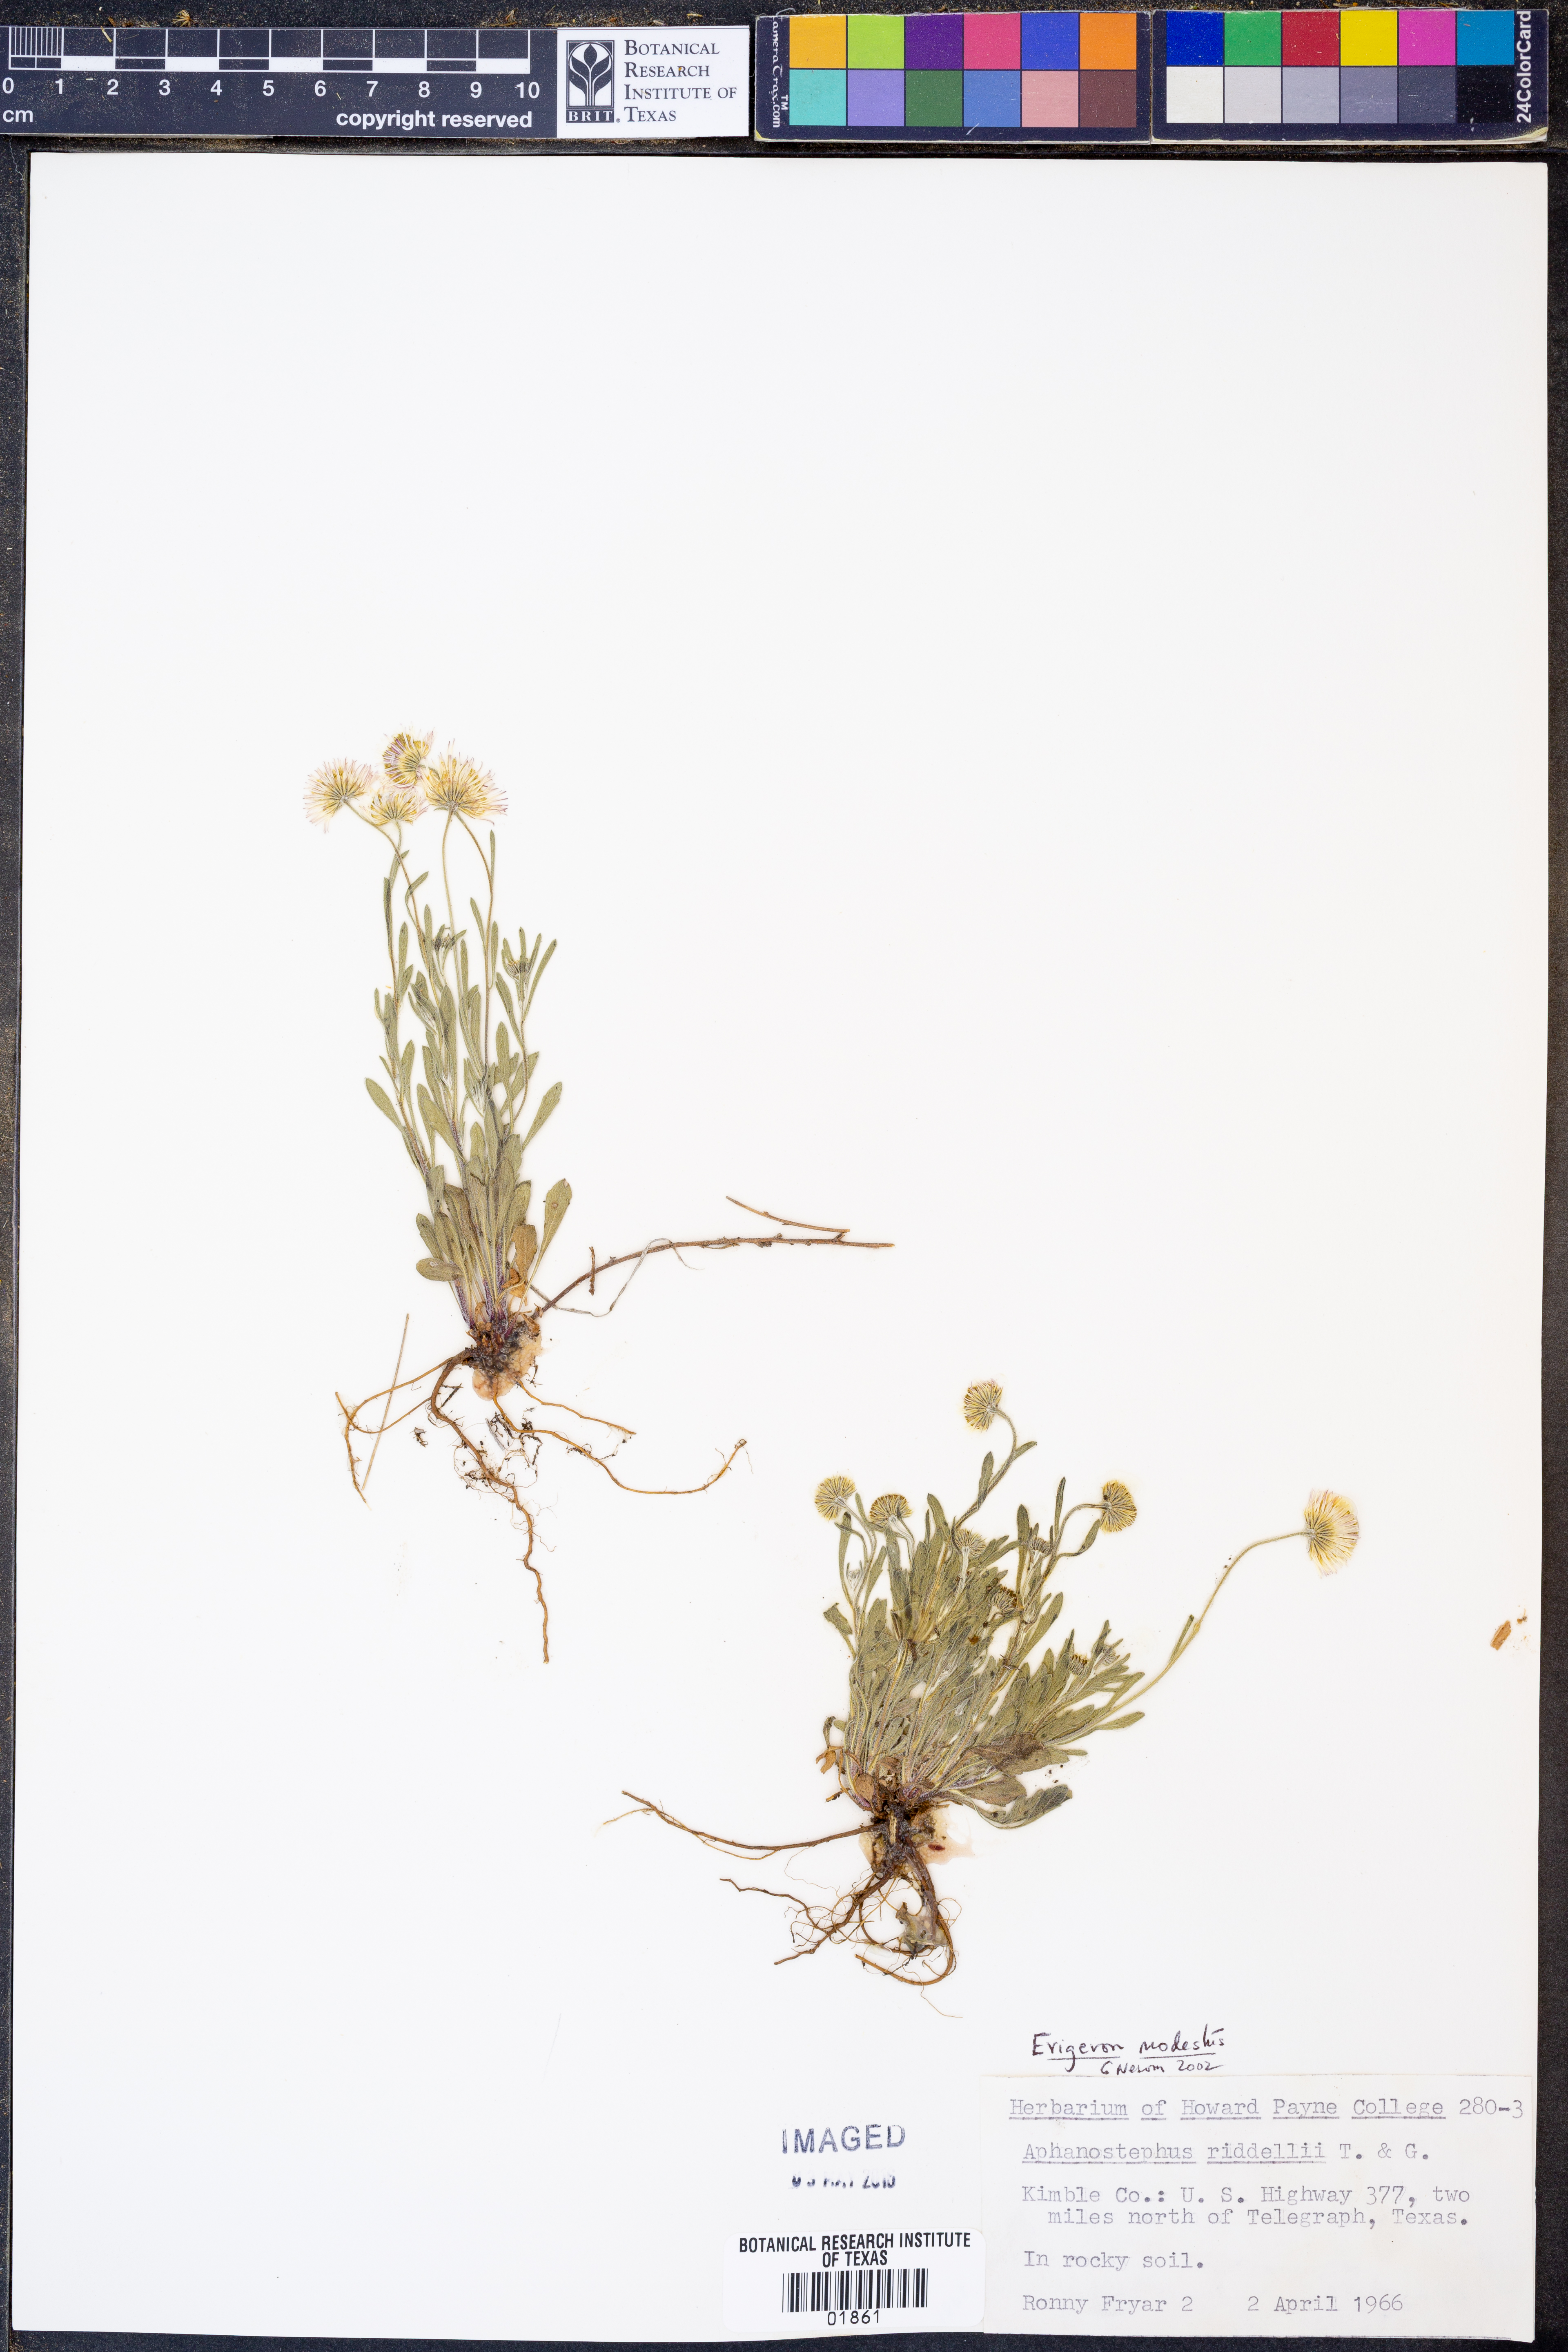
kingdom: Plantae
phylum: Tracheophyta
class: Magnoliopsida
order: Asterales
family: Asteraceae
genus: Erigeron
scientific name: Erigeron modestus
